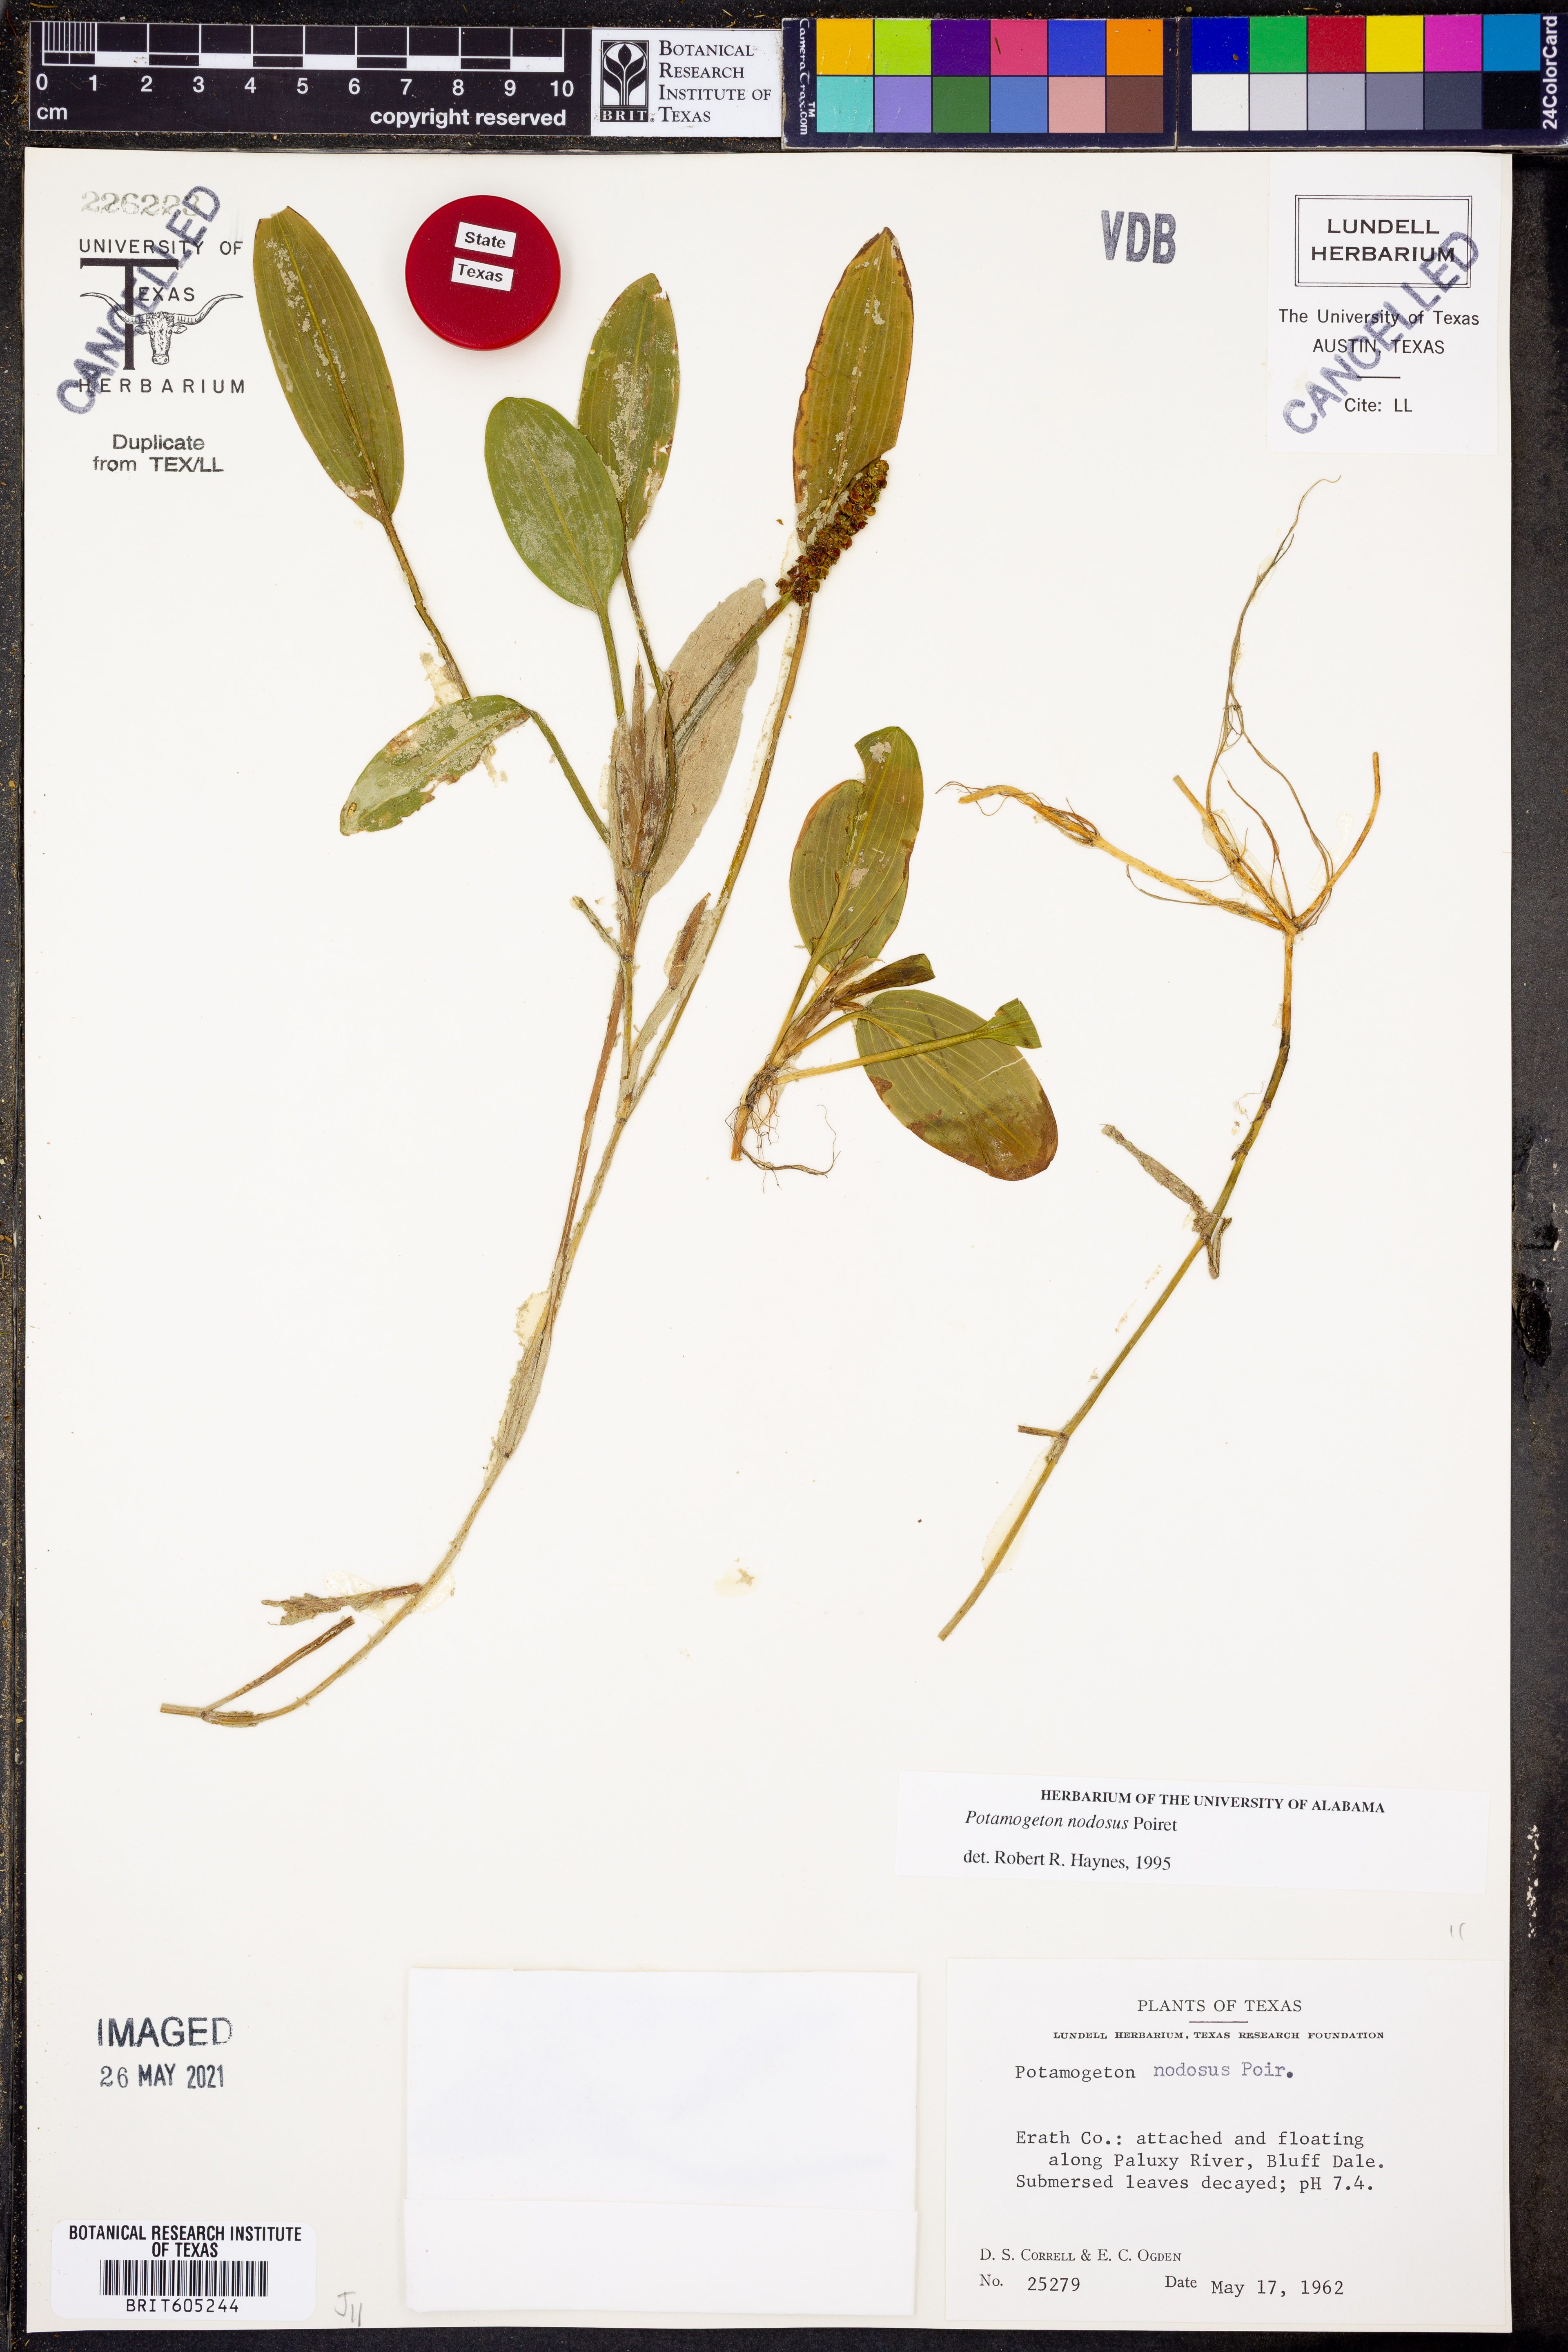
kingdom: Plantae
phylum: Tracheophyta
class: Liliopsida
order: Alismatales
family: Potamogetonaceae
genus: Potamogeton
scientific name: Potamogeton nodosus
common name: Loddon pondweed
